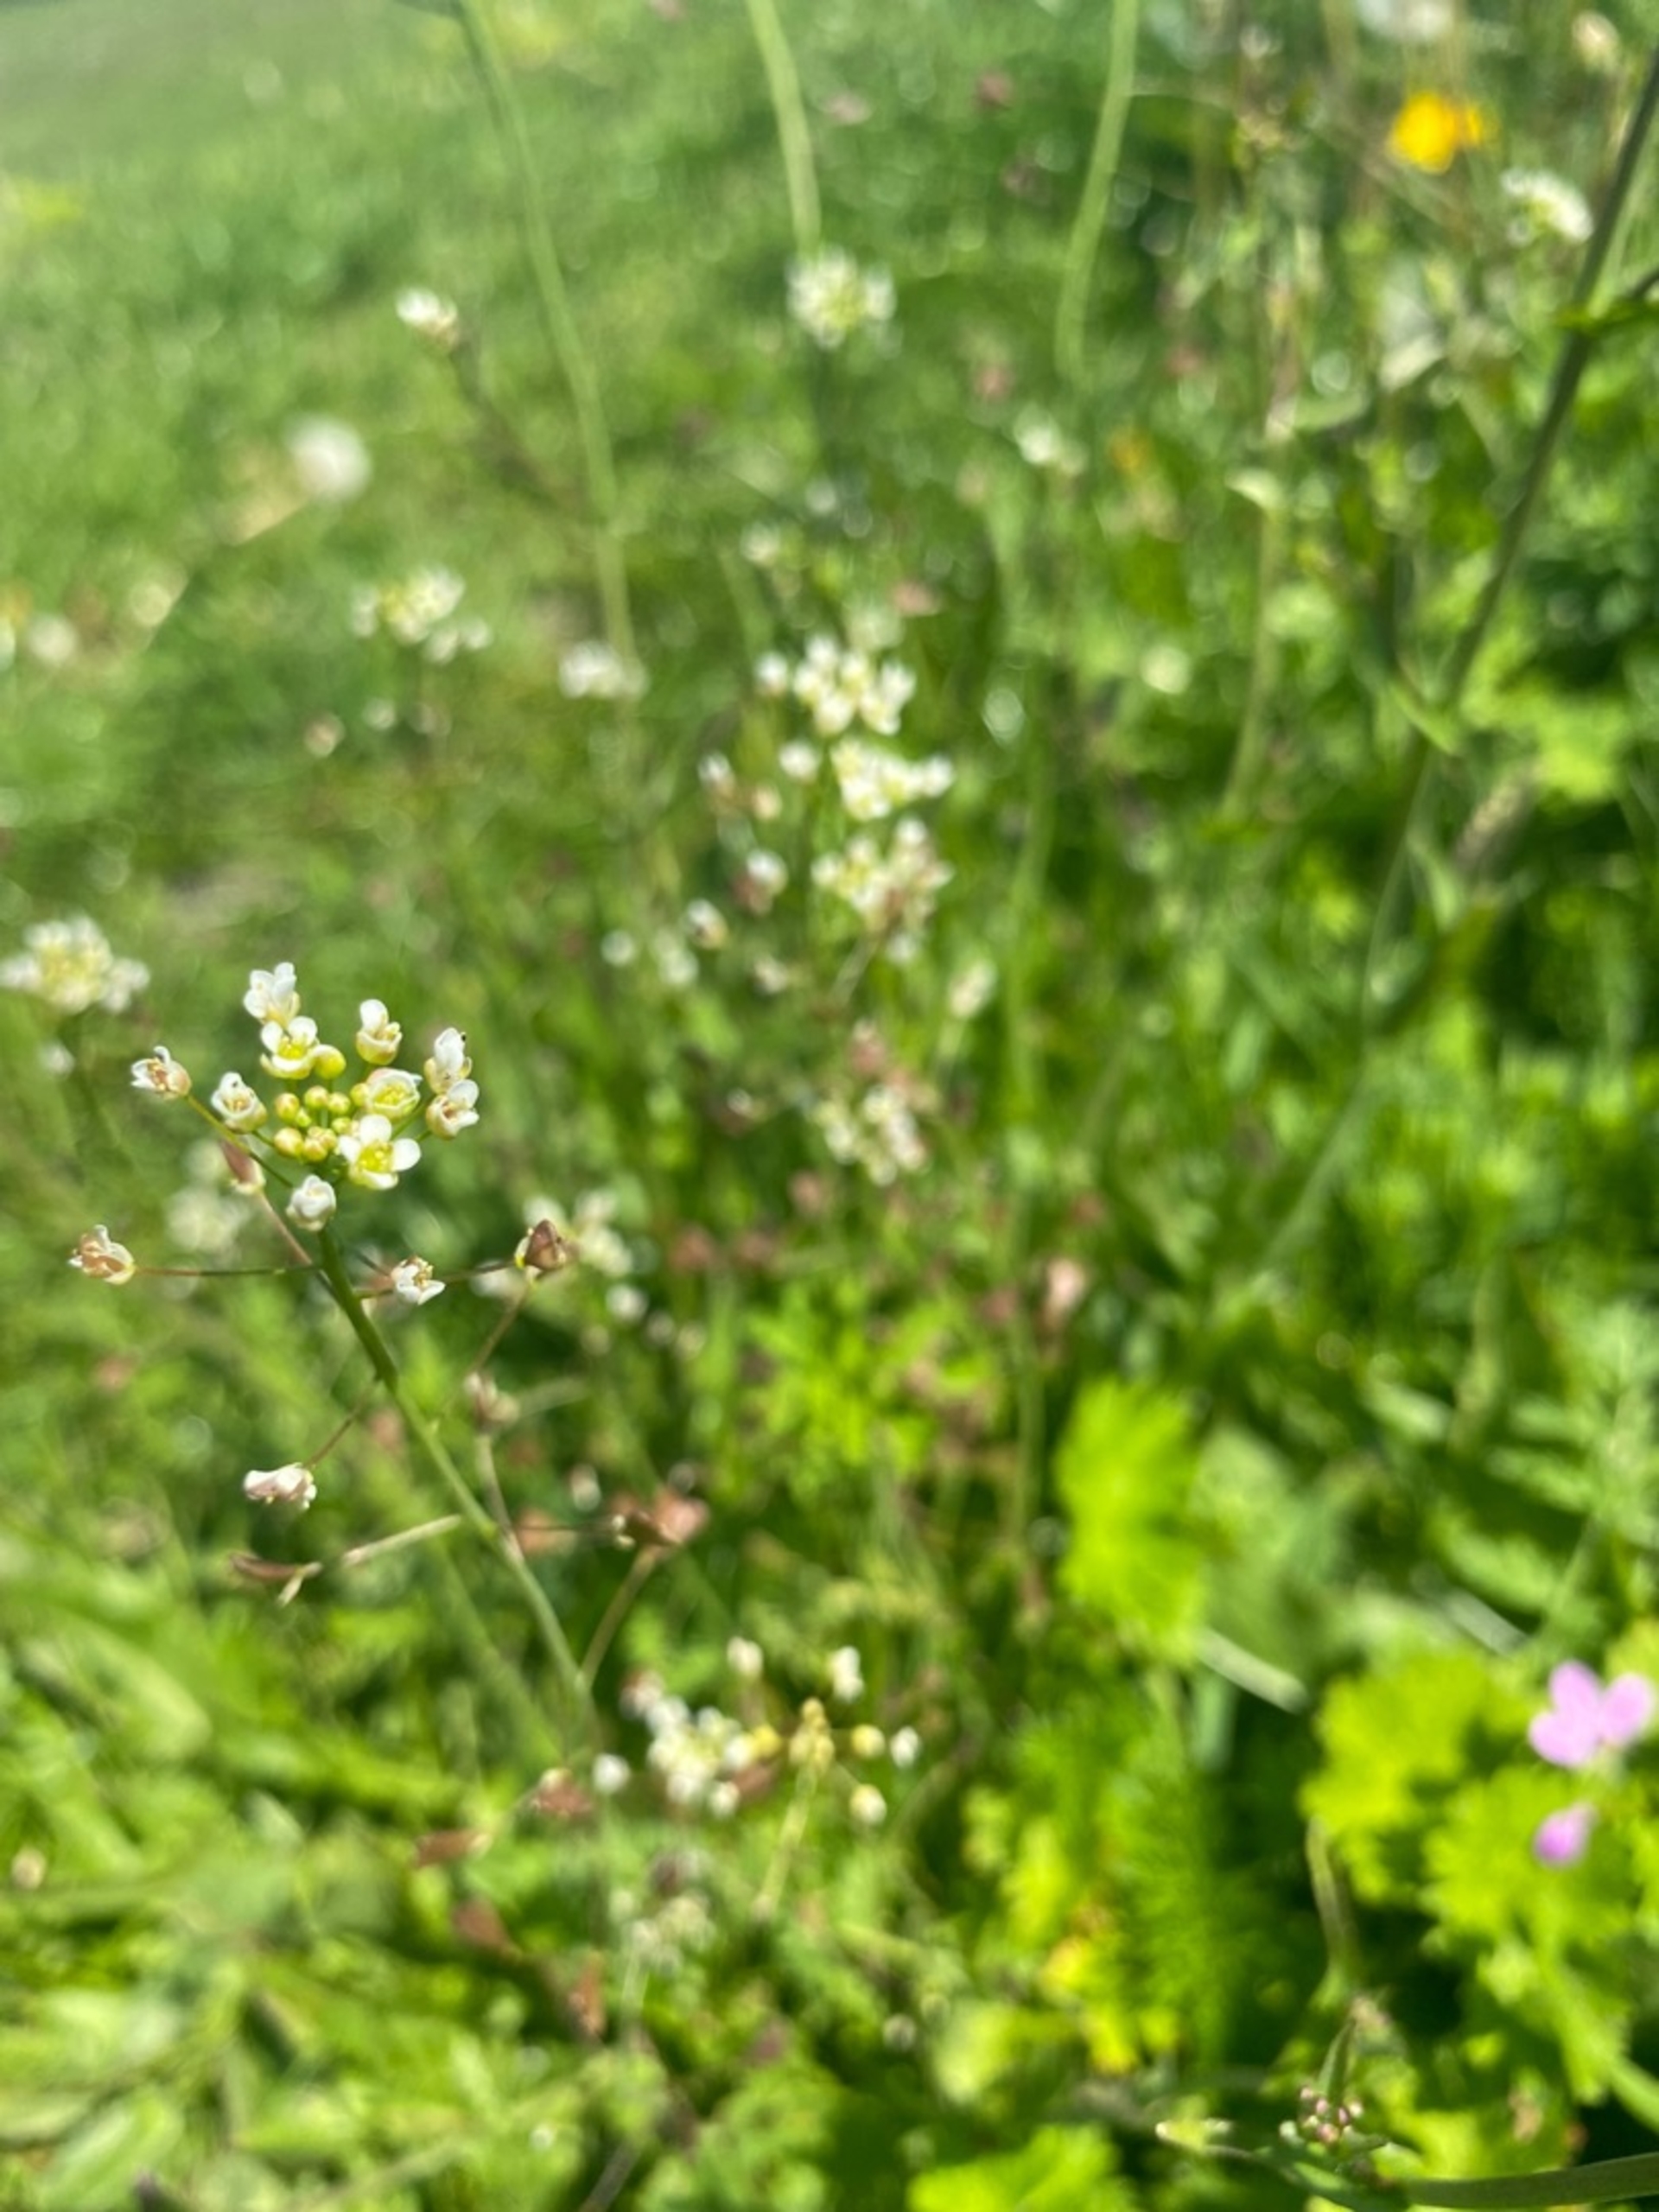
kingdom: Plantae
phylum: Tracheophyta
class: Magnoliopsida
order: Brassicales
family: Brassicaceae
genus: Capsella
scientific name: Capsella bursa-pastoris
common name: Hyrdetaske
